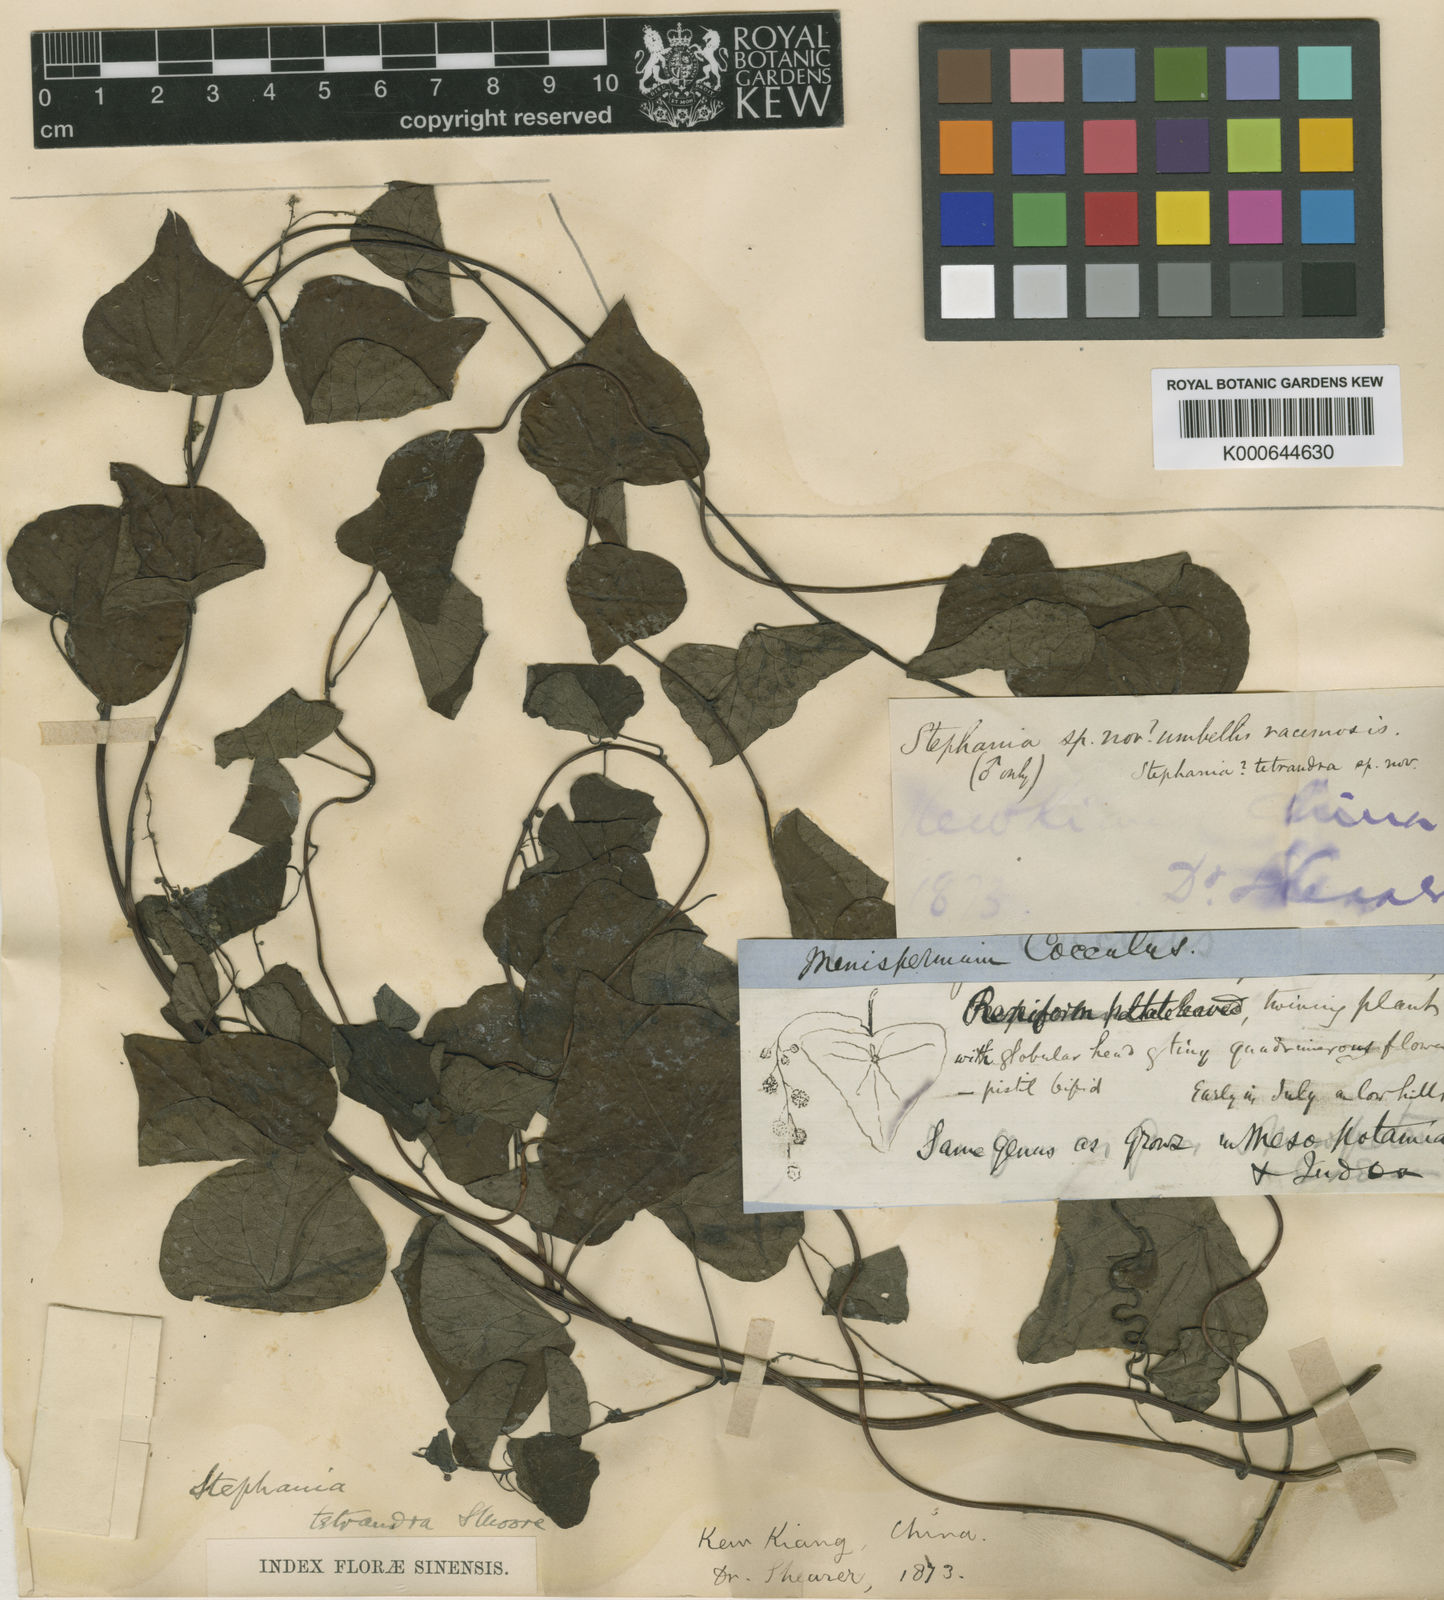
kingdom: Plantae
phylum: Tracheophyta
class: Magnoliopsida
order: Ranunculales
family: Menispermaceae
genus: Stephania
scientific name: Stephania tetrandra
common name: Stephania-root
